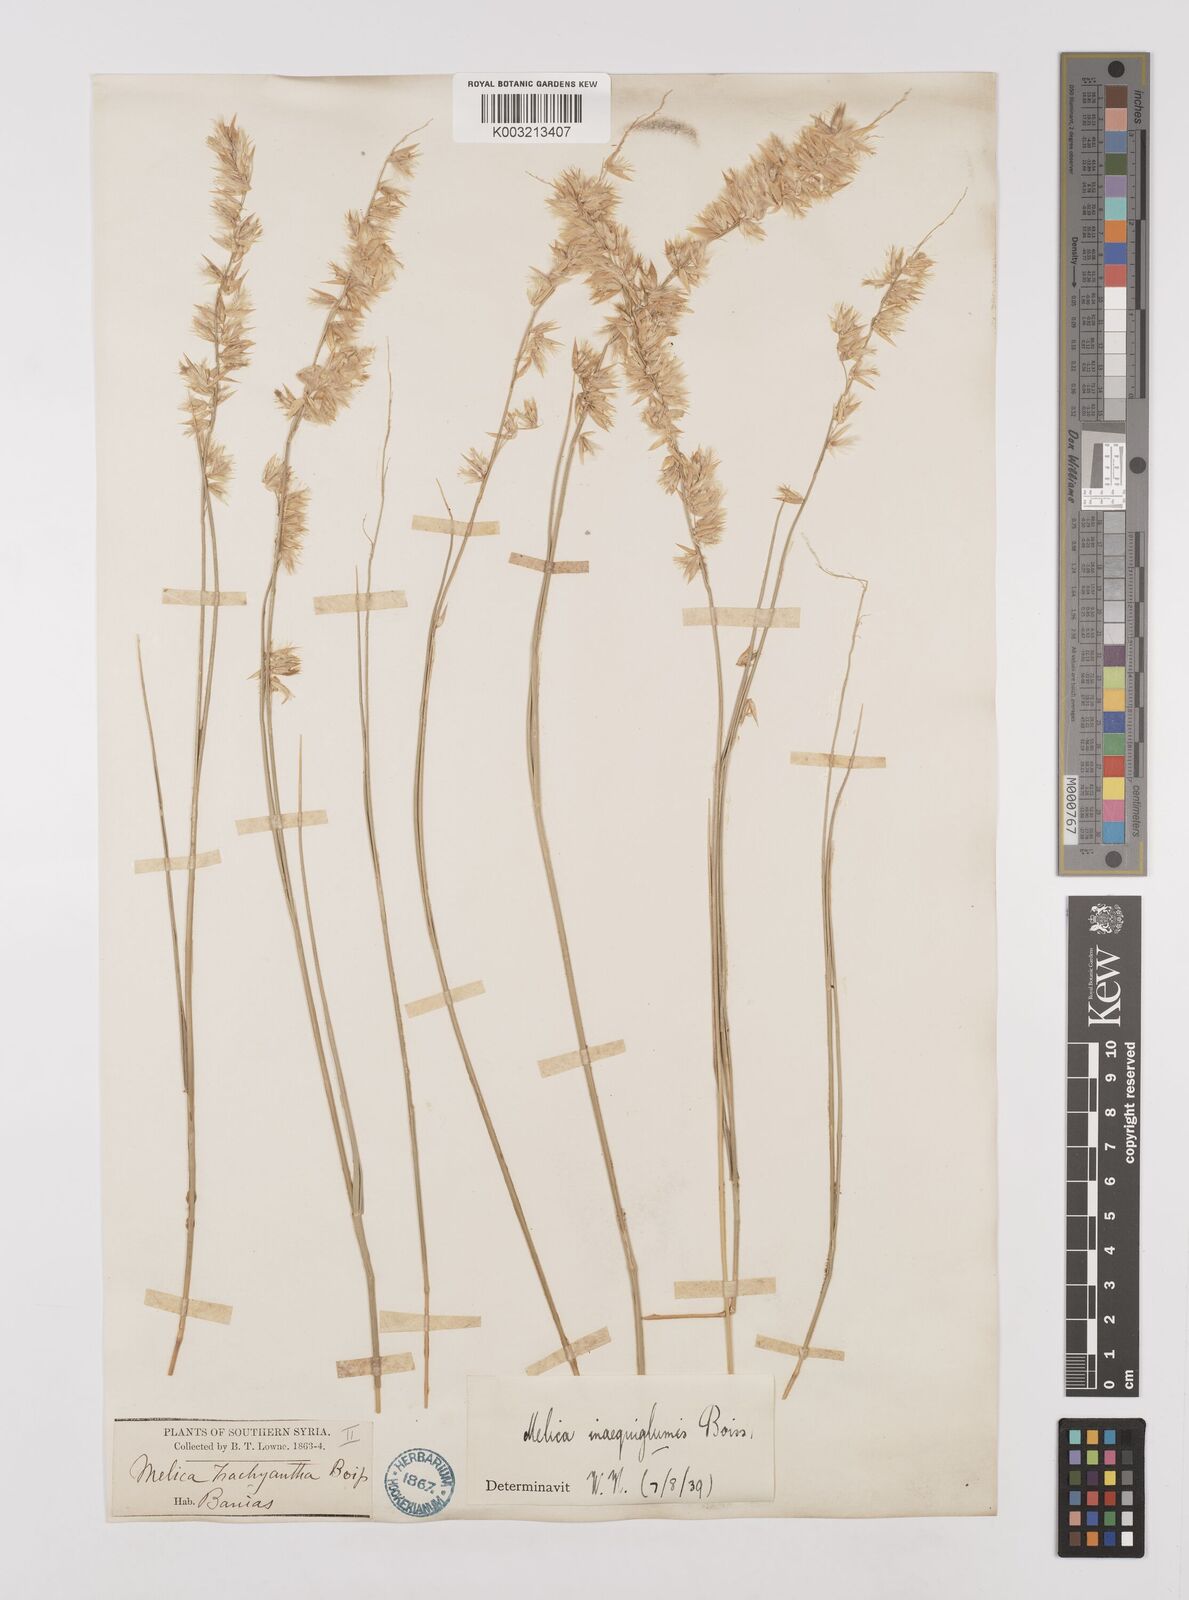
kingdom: Plantae
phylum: Tracheophyta
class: Liliopsida
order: Poales
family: Poaceae
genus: Melica
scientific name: Melica persica
